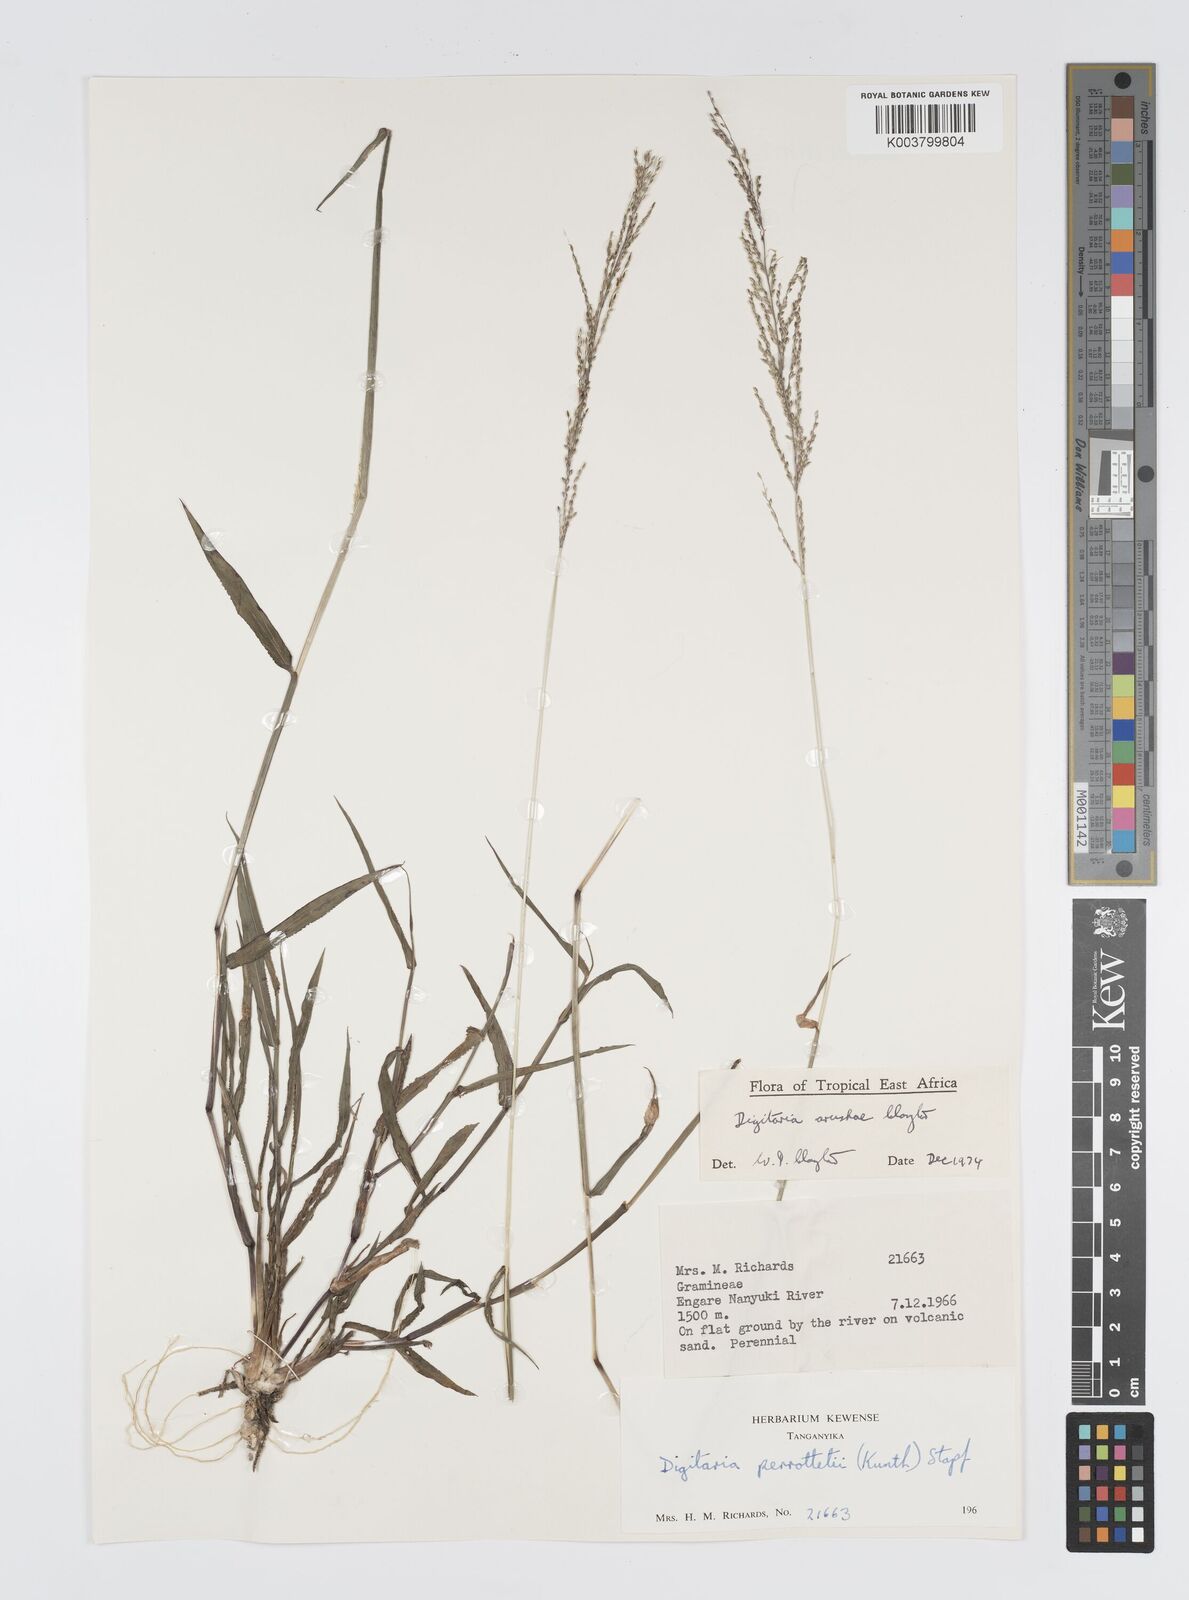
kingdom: Plantae
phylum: Tracheophyta
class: Liliopsida
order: Poales
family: Poaceae
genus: Digitaria
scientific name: Digitaria arushae
